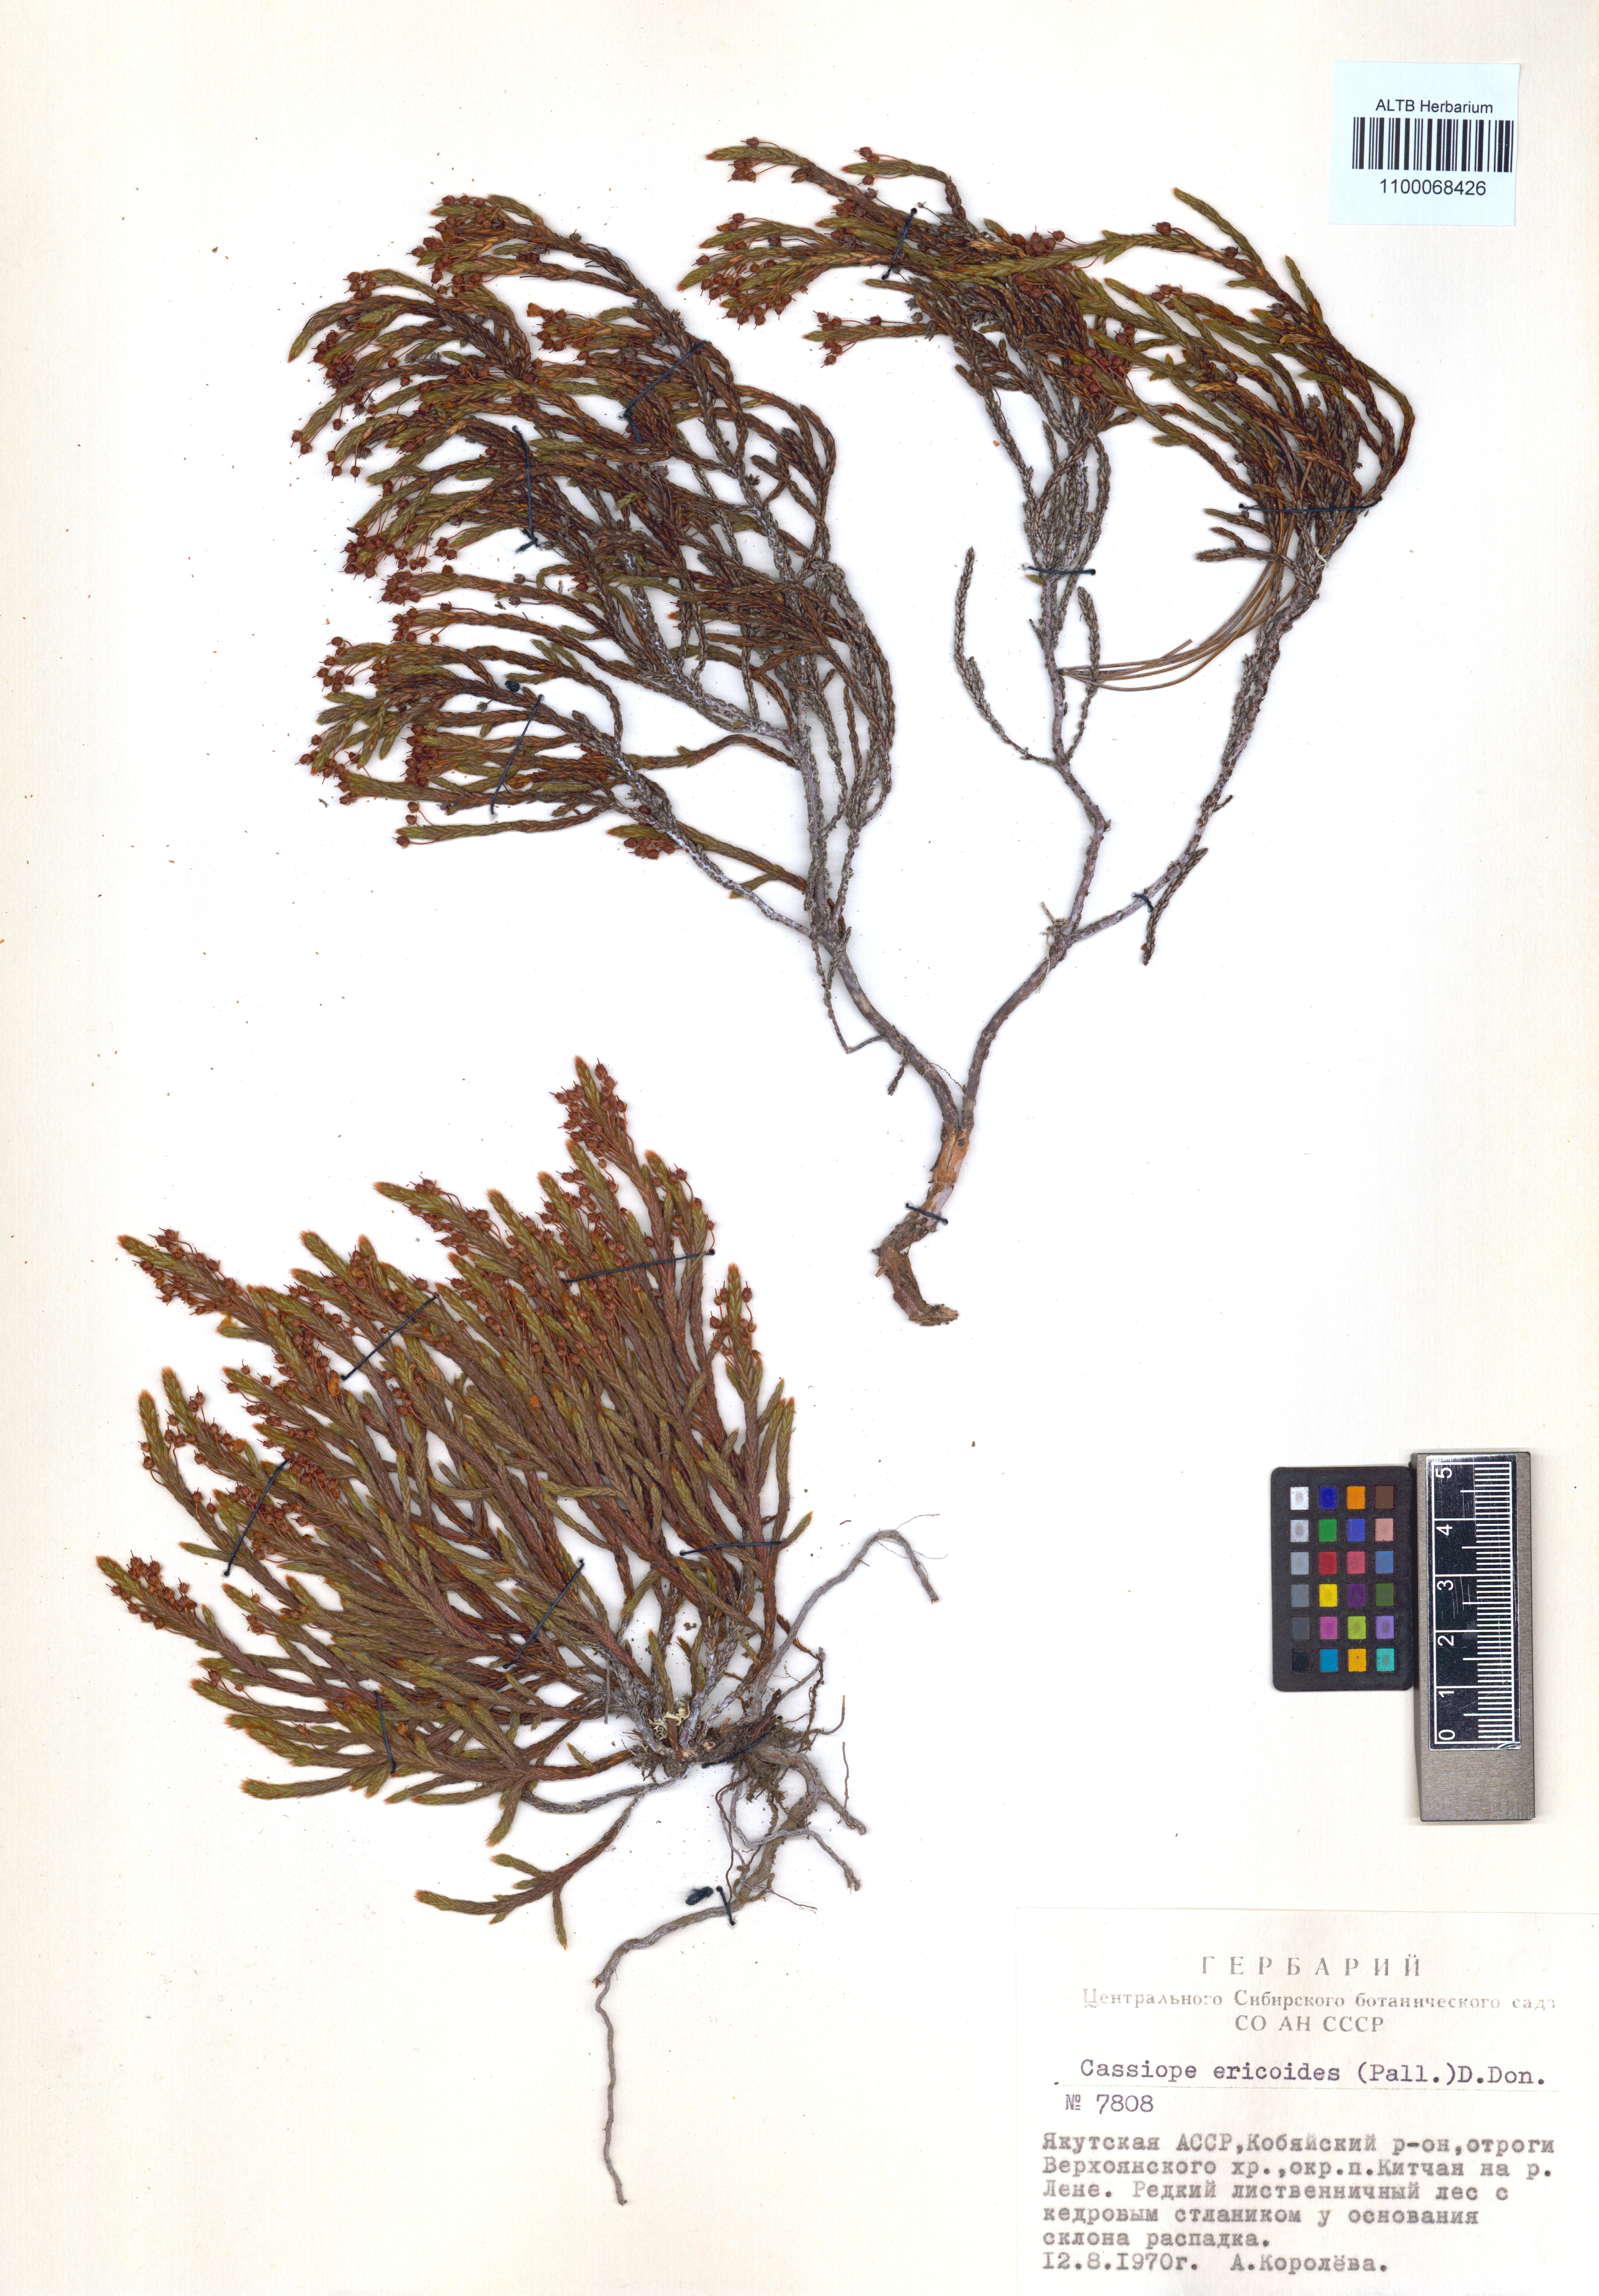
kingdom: Plantae
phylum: Tracheophyta
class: Magnoliopsida
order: Ericales
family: Ericaceae
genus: Cassiope
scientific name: Cassiope ericoides
